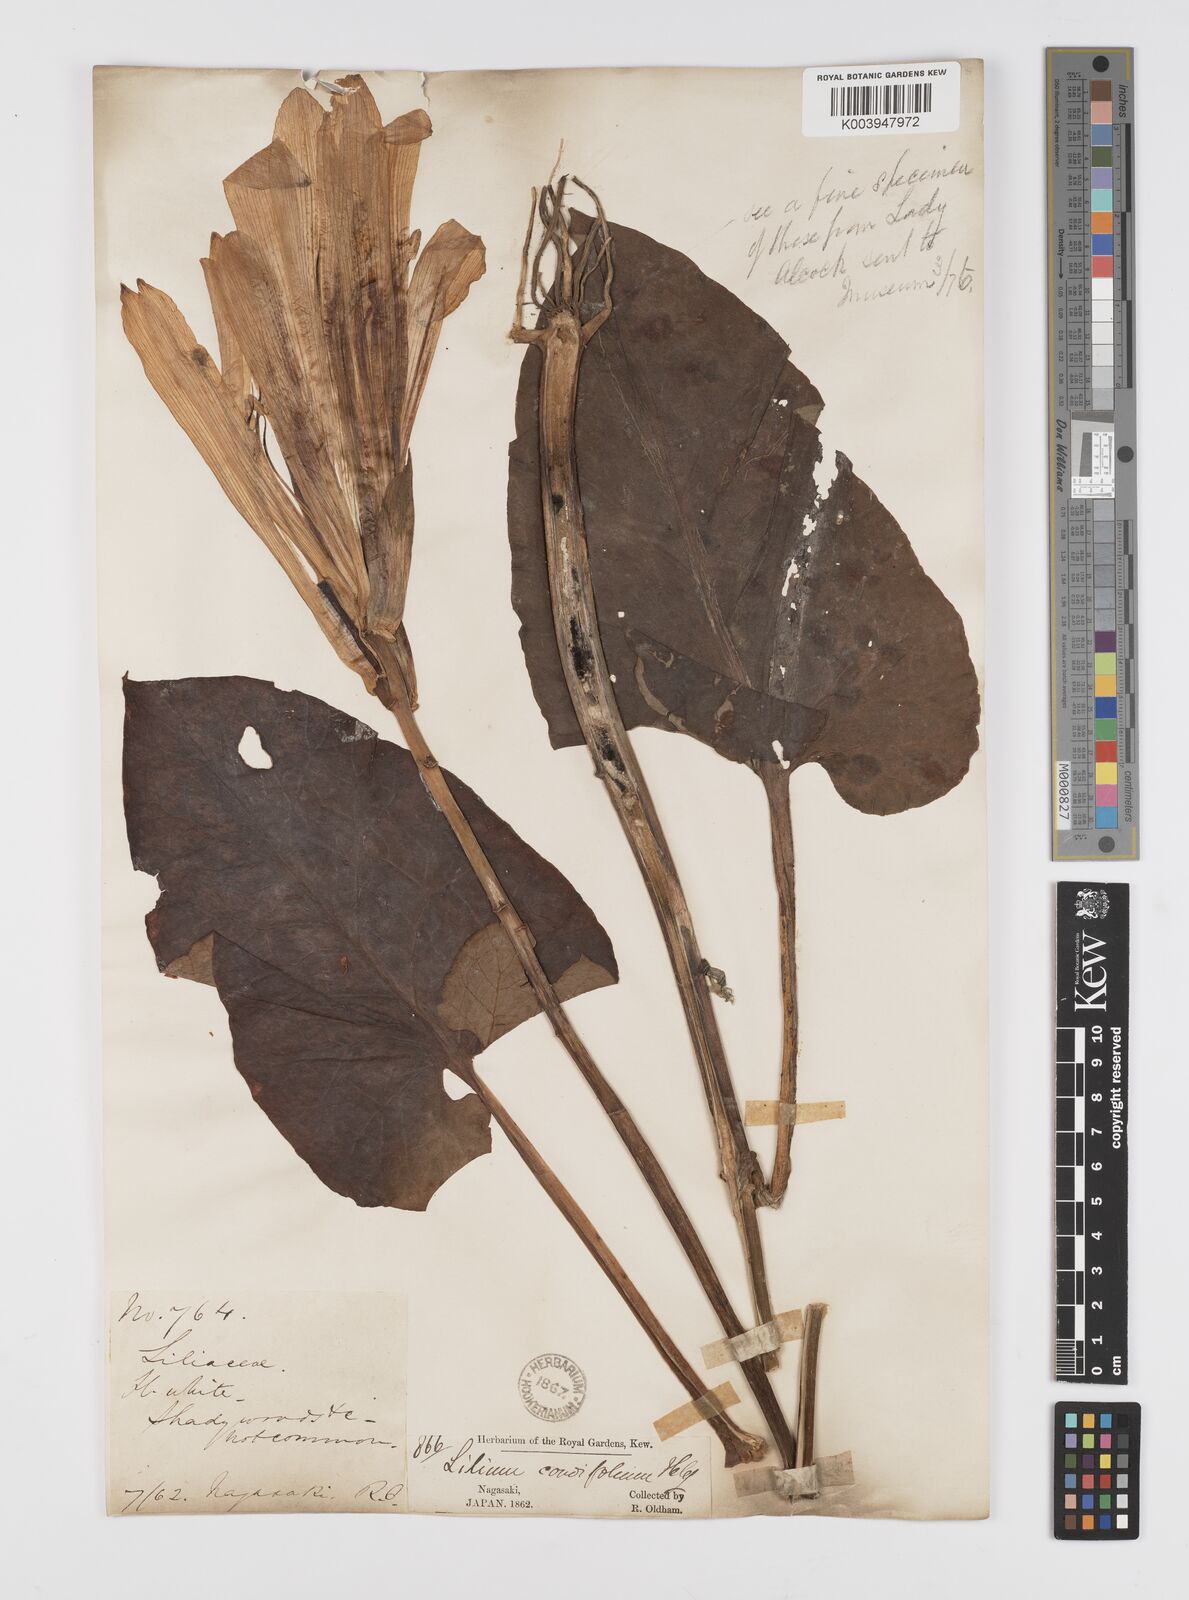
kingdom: Plantae
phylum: Tracheophyta
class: Liliopsida
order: Liliales
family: Liliaceae
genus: Cardiocrinum
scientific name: Cardiocrinum
